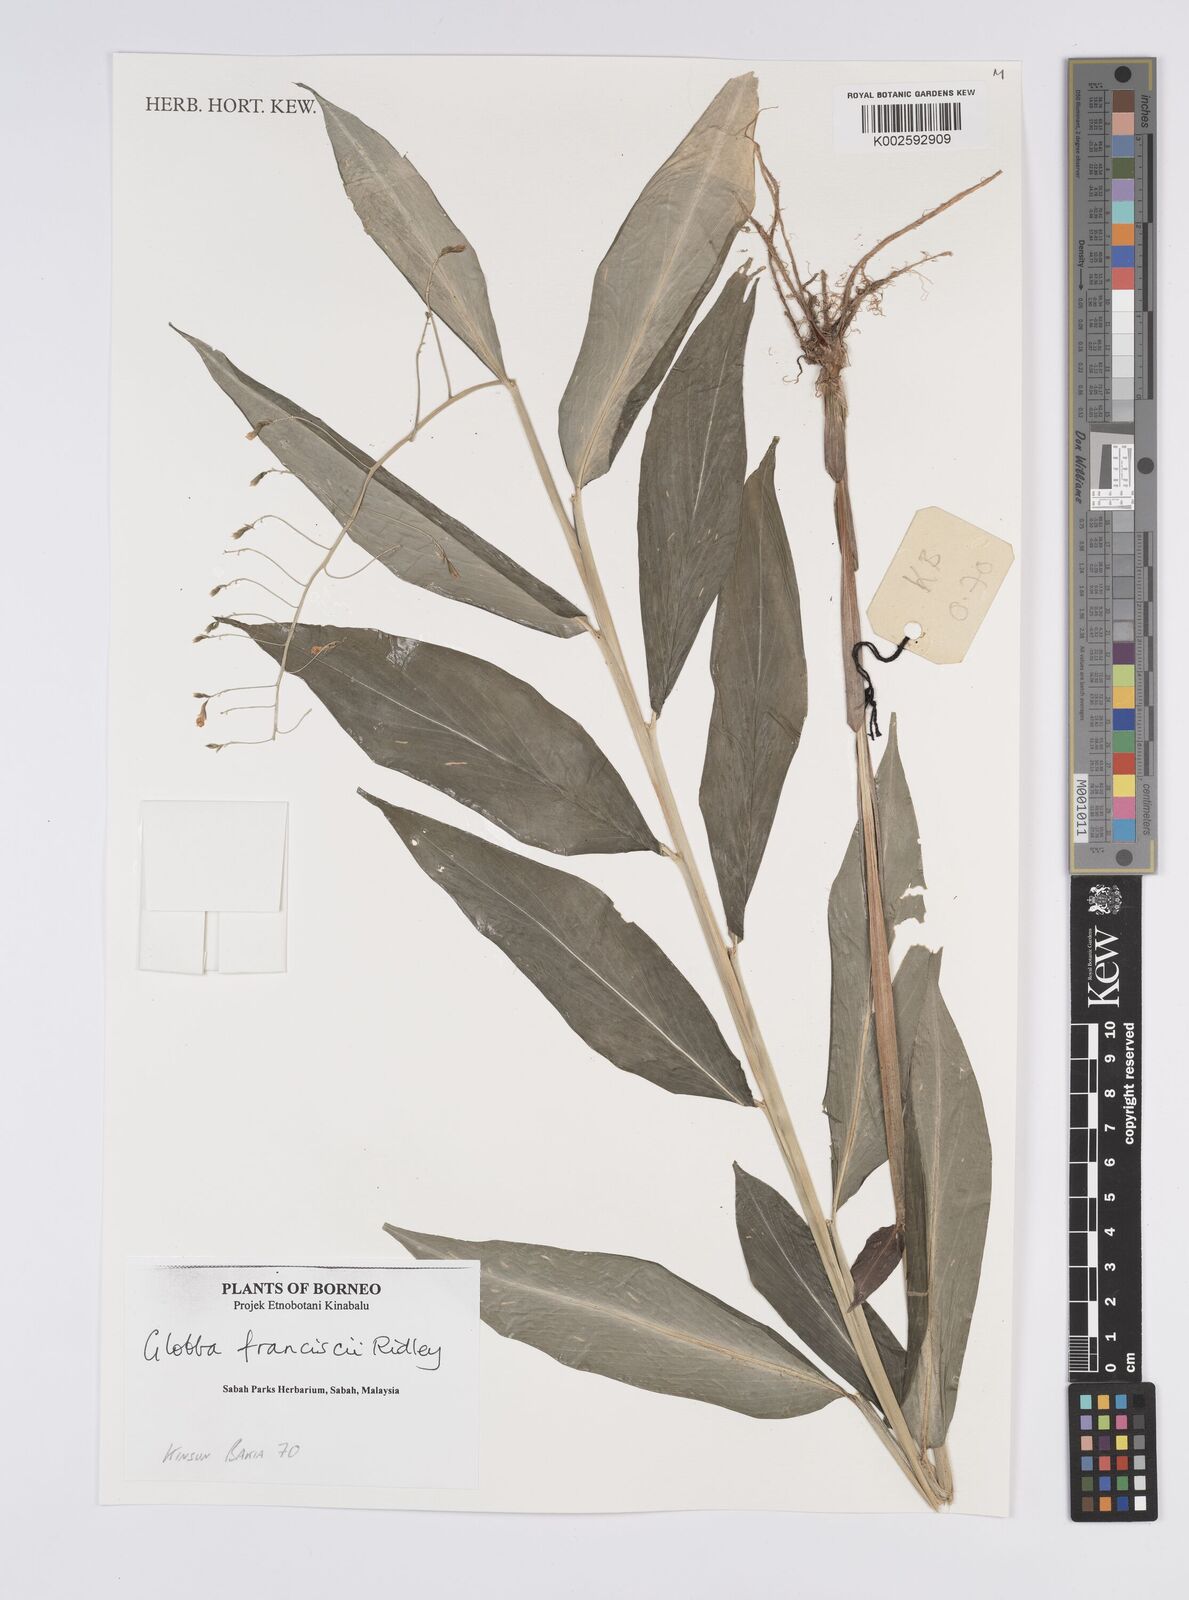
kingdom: Plantae
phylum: Tracheophyta
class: Liliopsida
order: Zingiberales
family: Zingiberaceae
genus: Globba
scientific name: Globba francisci
